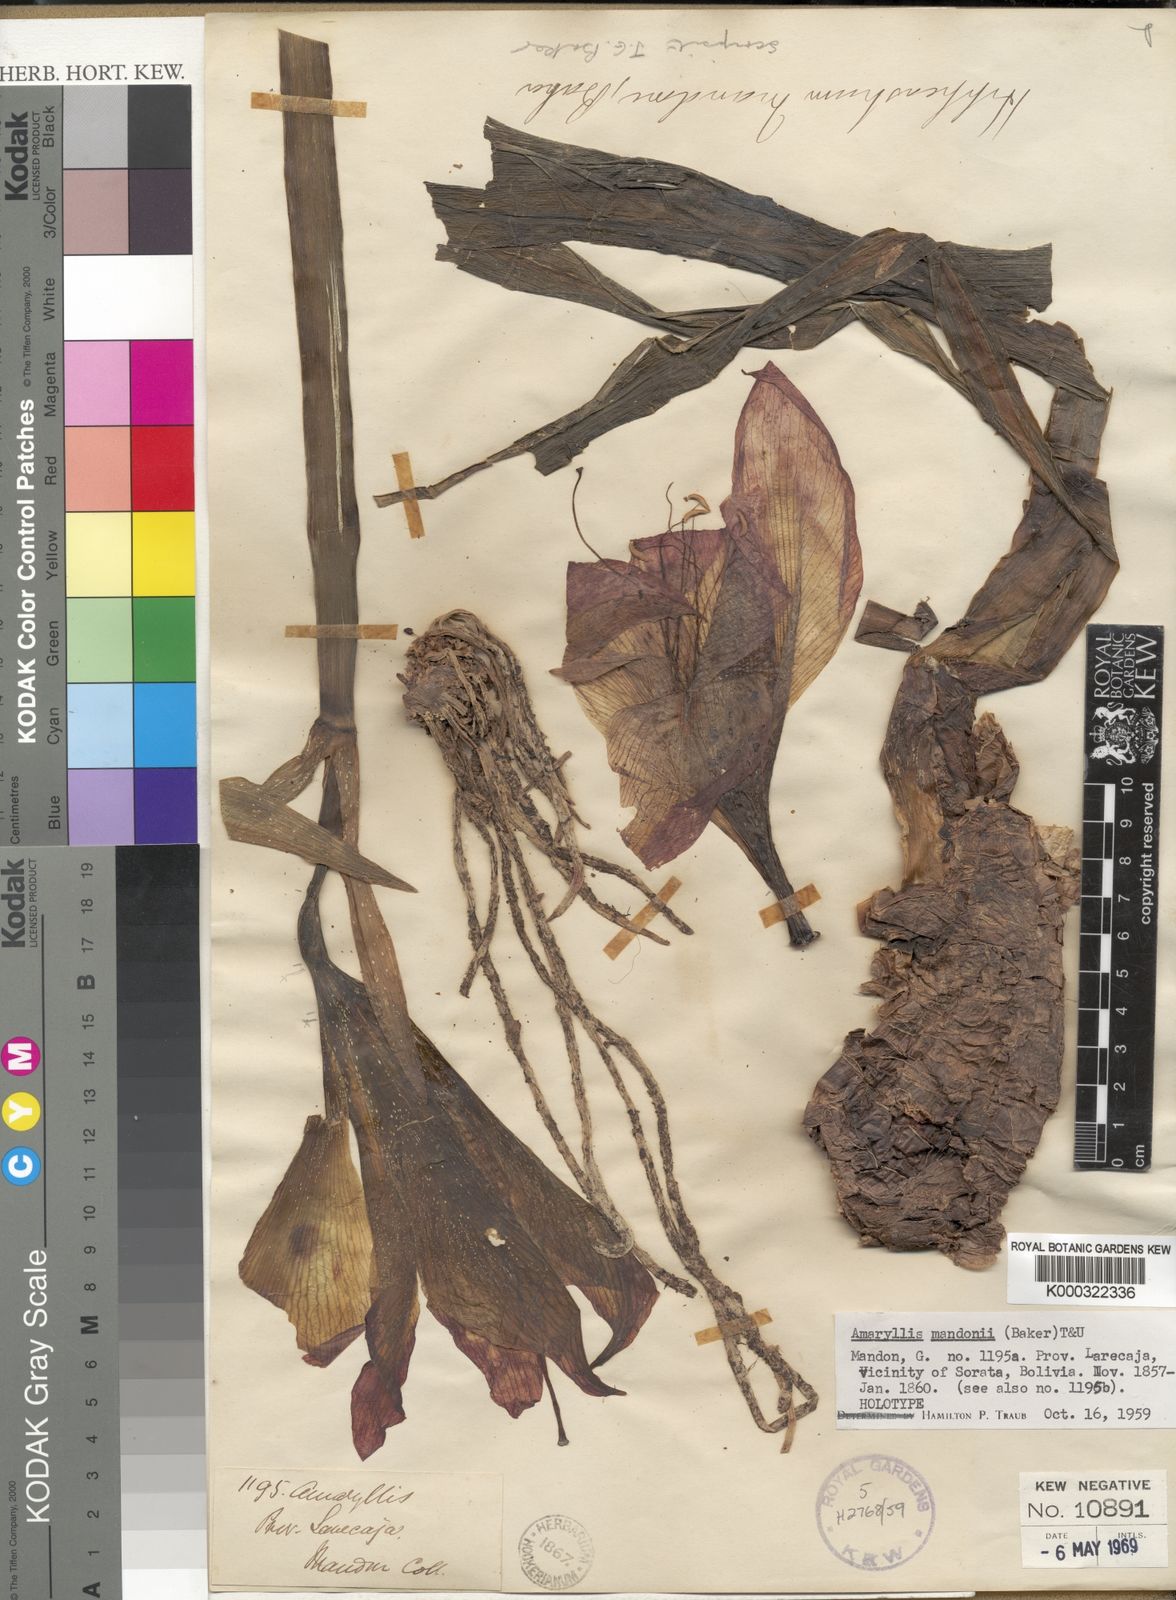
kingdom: Plantae
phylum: Tracheophyta
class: Liliopsida
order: Asparagales
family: Amaryllidaceae
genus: Amaryllis
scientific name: Amaryllis
